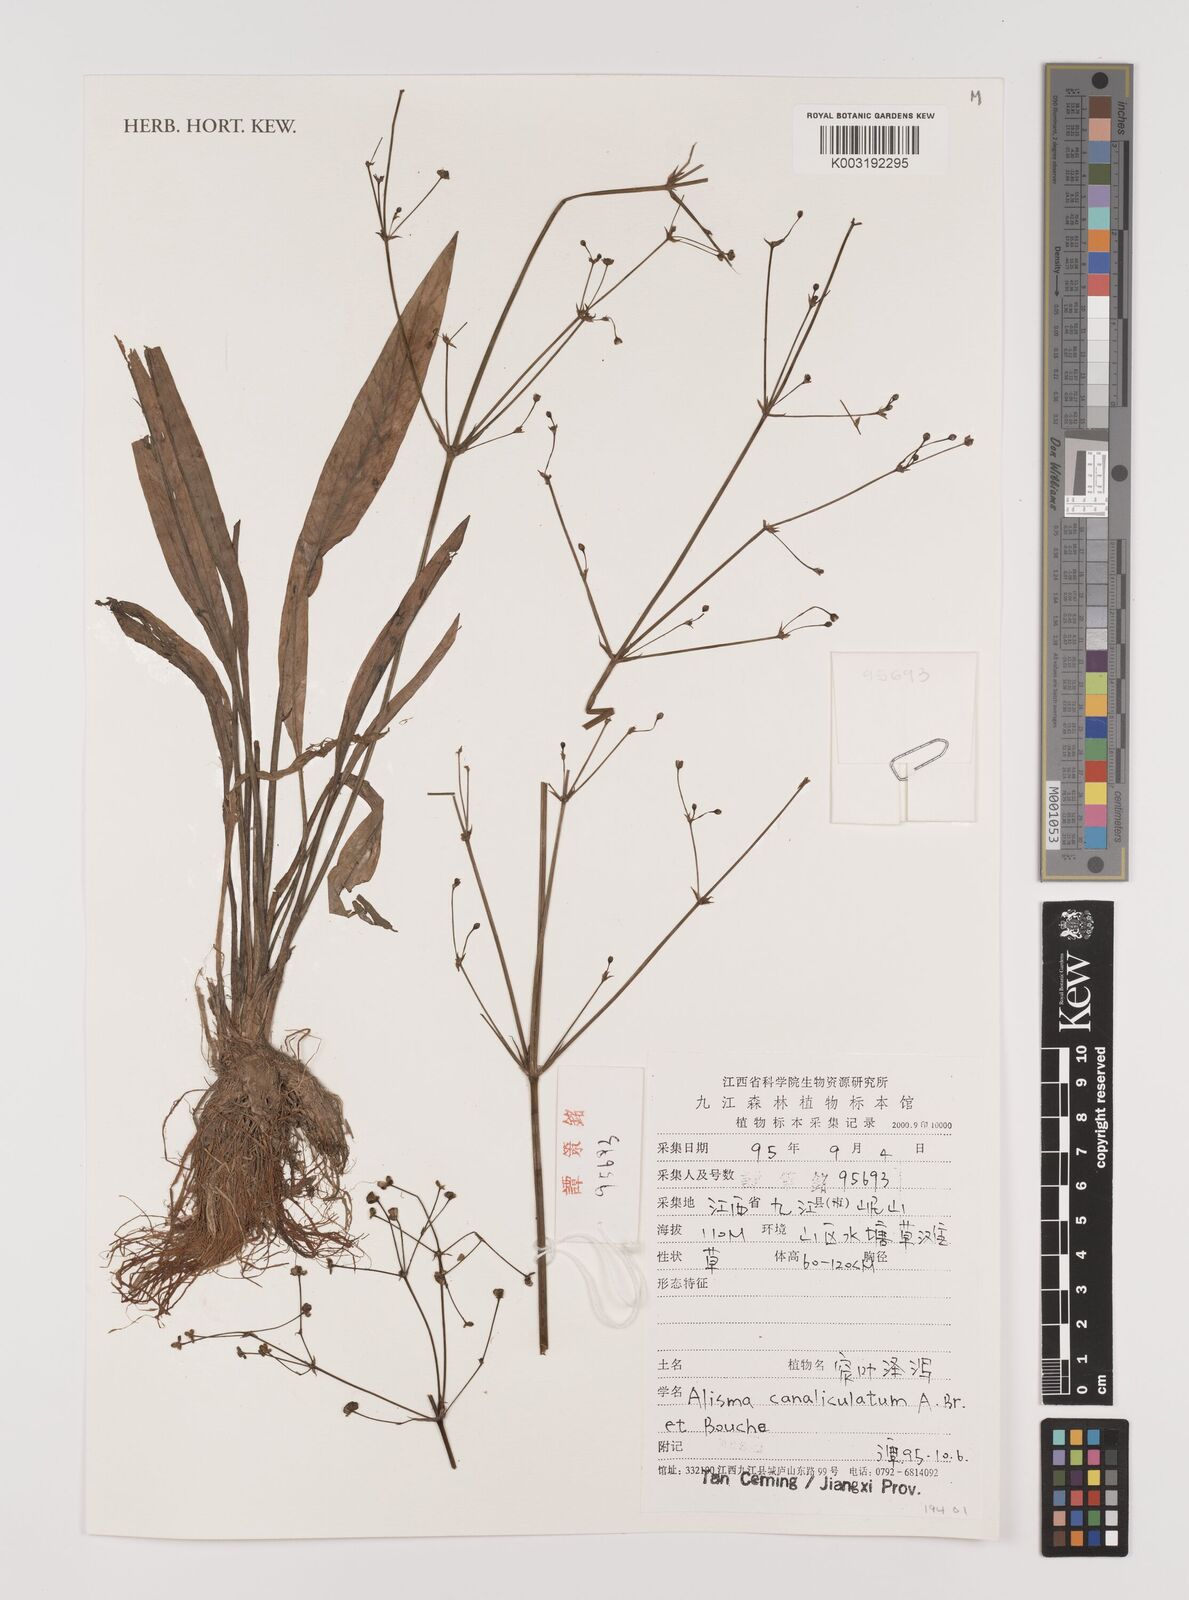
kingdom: Plantae
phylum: Tracheophyta
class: Liliopsida
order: Alismatales
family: Alismataceae
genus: Alisma
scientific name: Alisma canaliculatum
